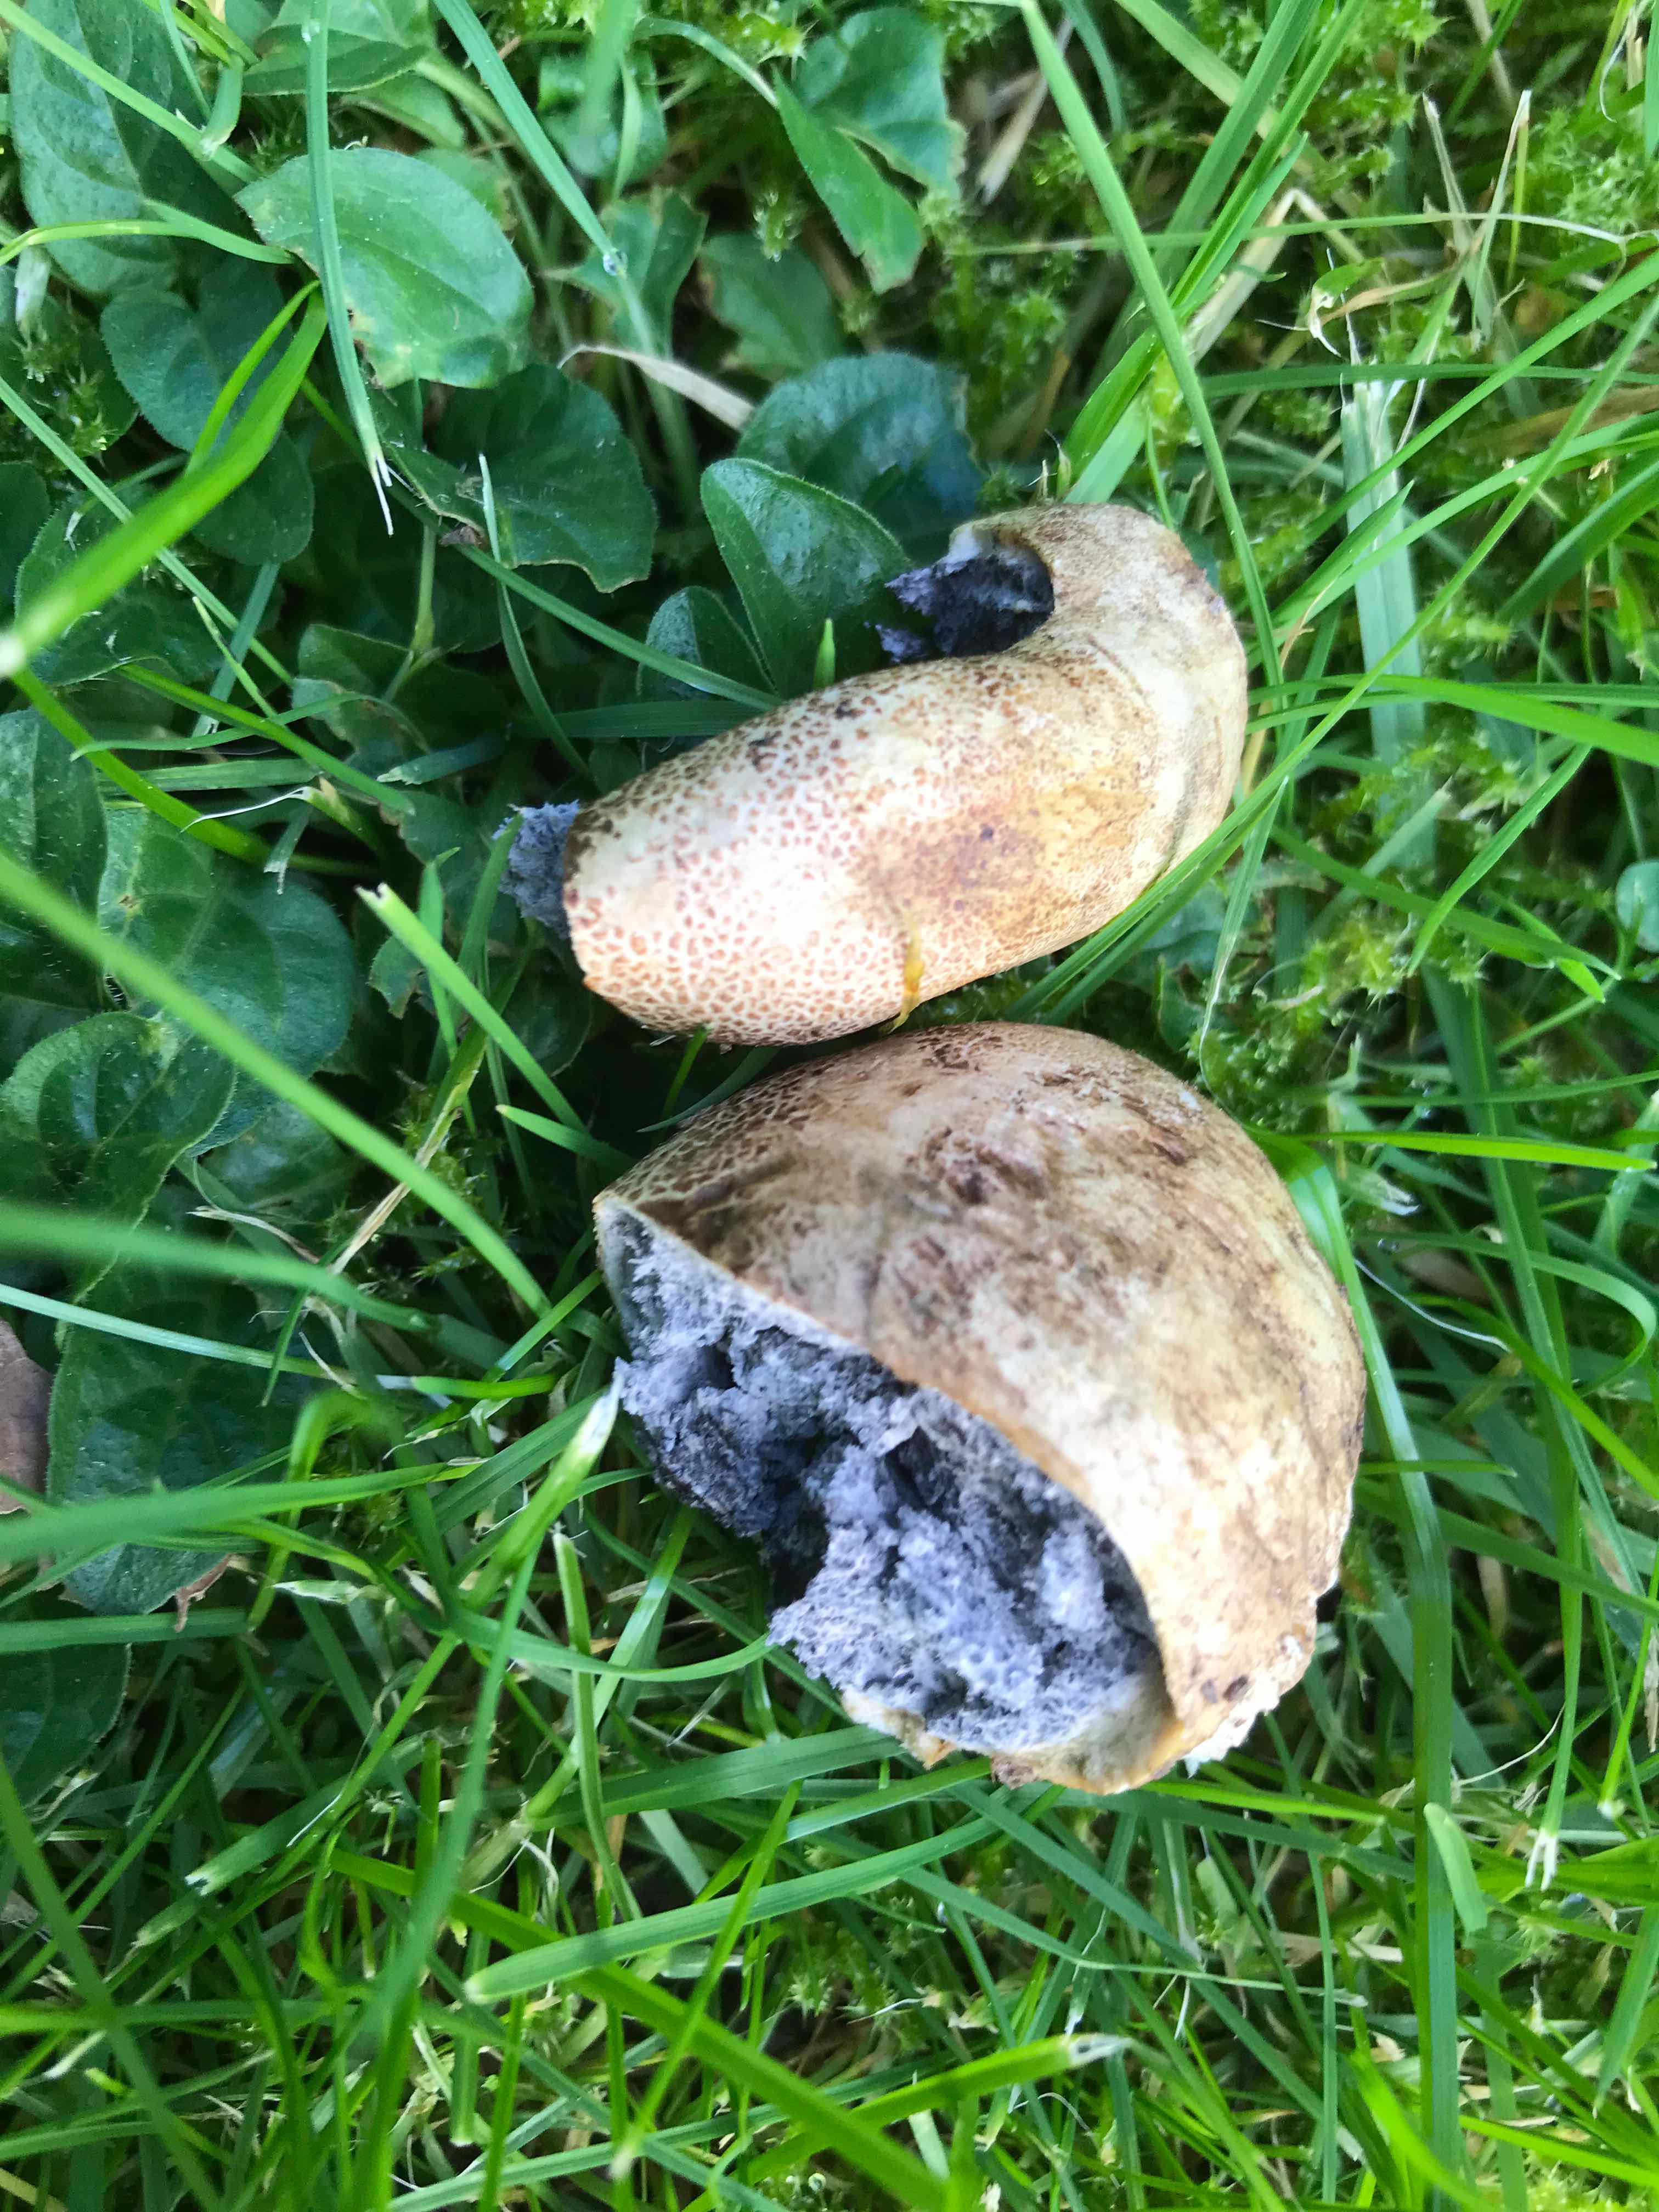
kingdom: Fungi
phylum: Basidiomycota
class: Agaricomycetes
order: Boletales
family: Sclerodermataceae
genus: Scleroderma
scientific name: Scleroderma bovista
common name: bovist-bruskbold
